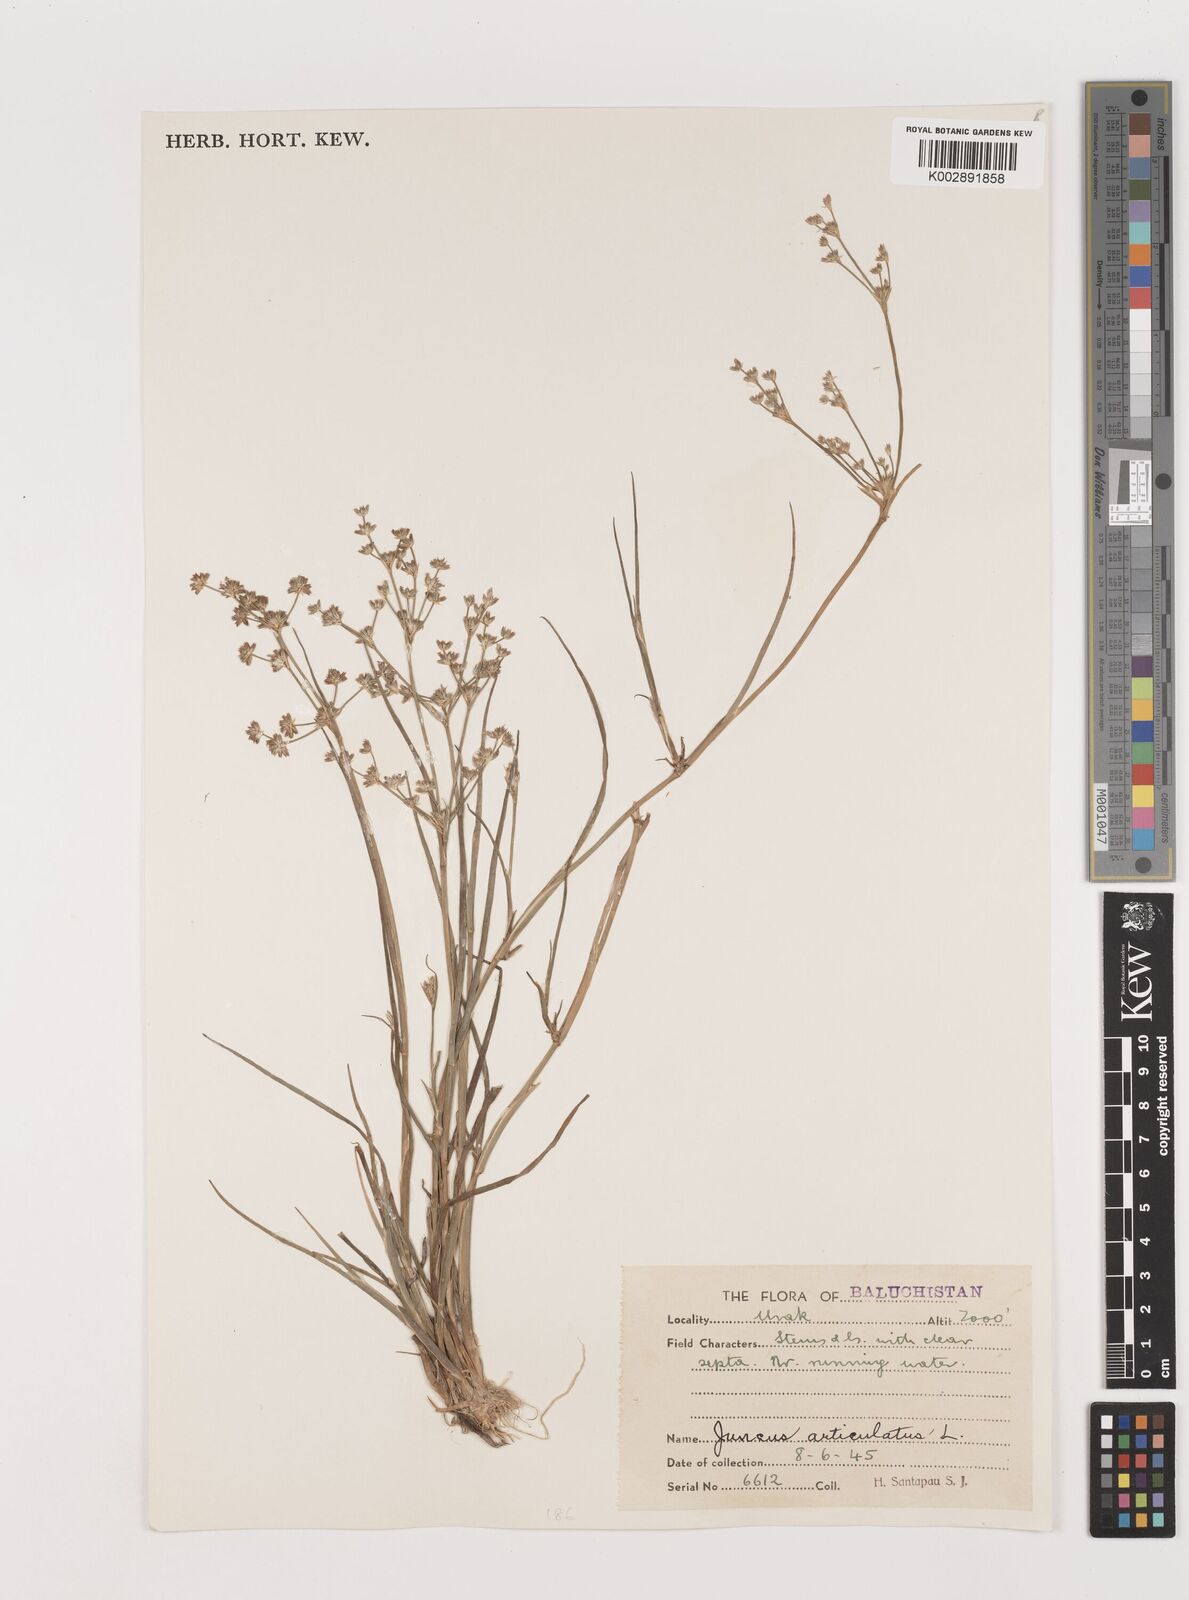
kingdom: Plantae
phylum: Tracheophyta
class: Liliopsida
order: Poales
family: Juncaceae
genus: Juncus
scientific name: Juncus articulatus
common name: Jointed rush
